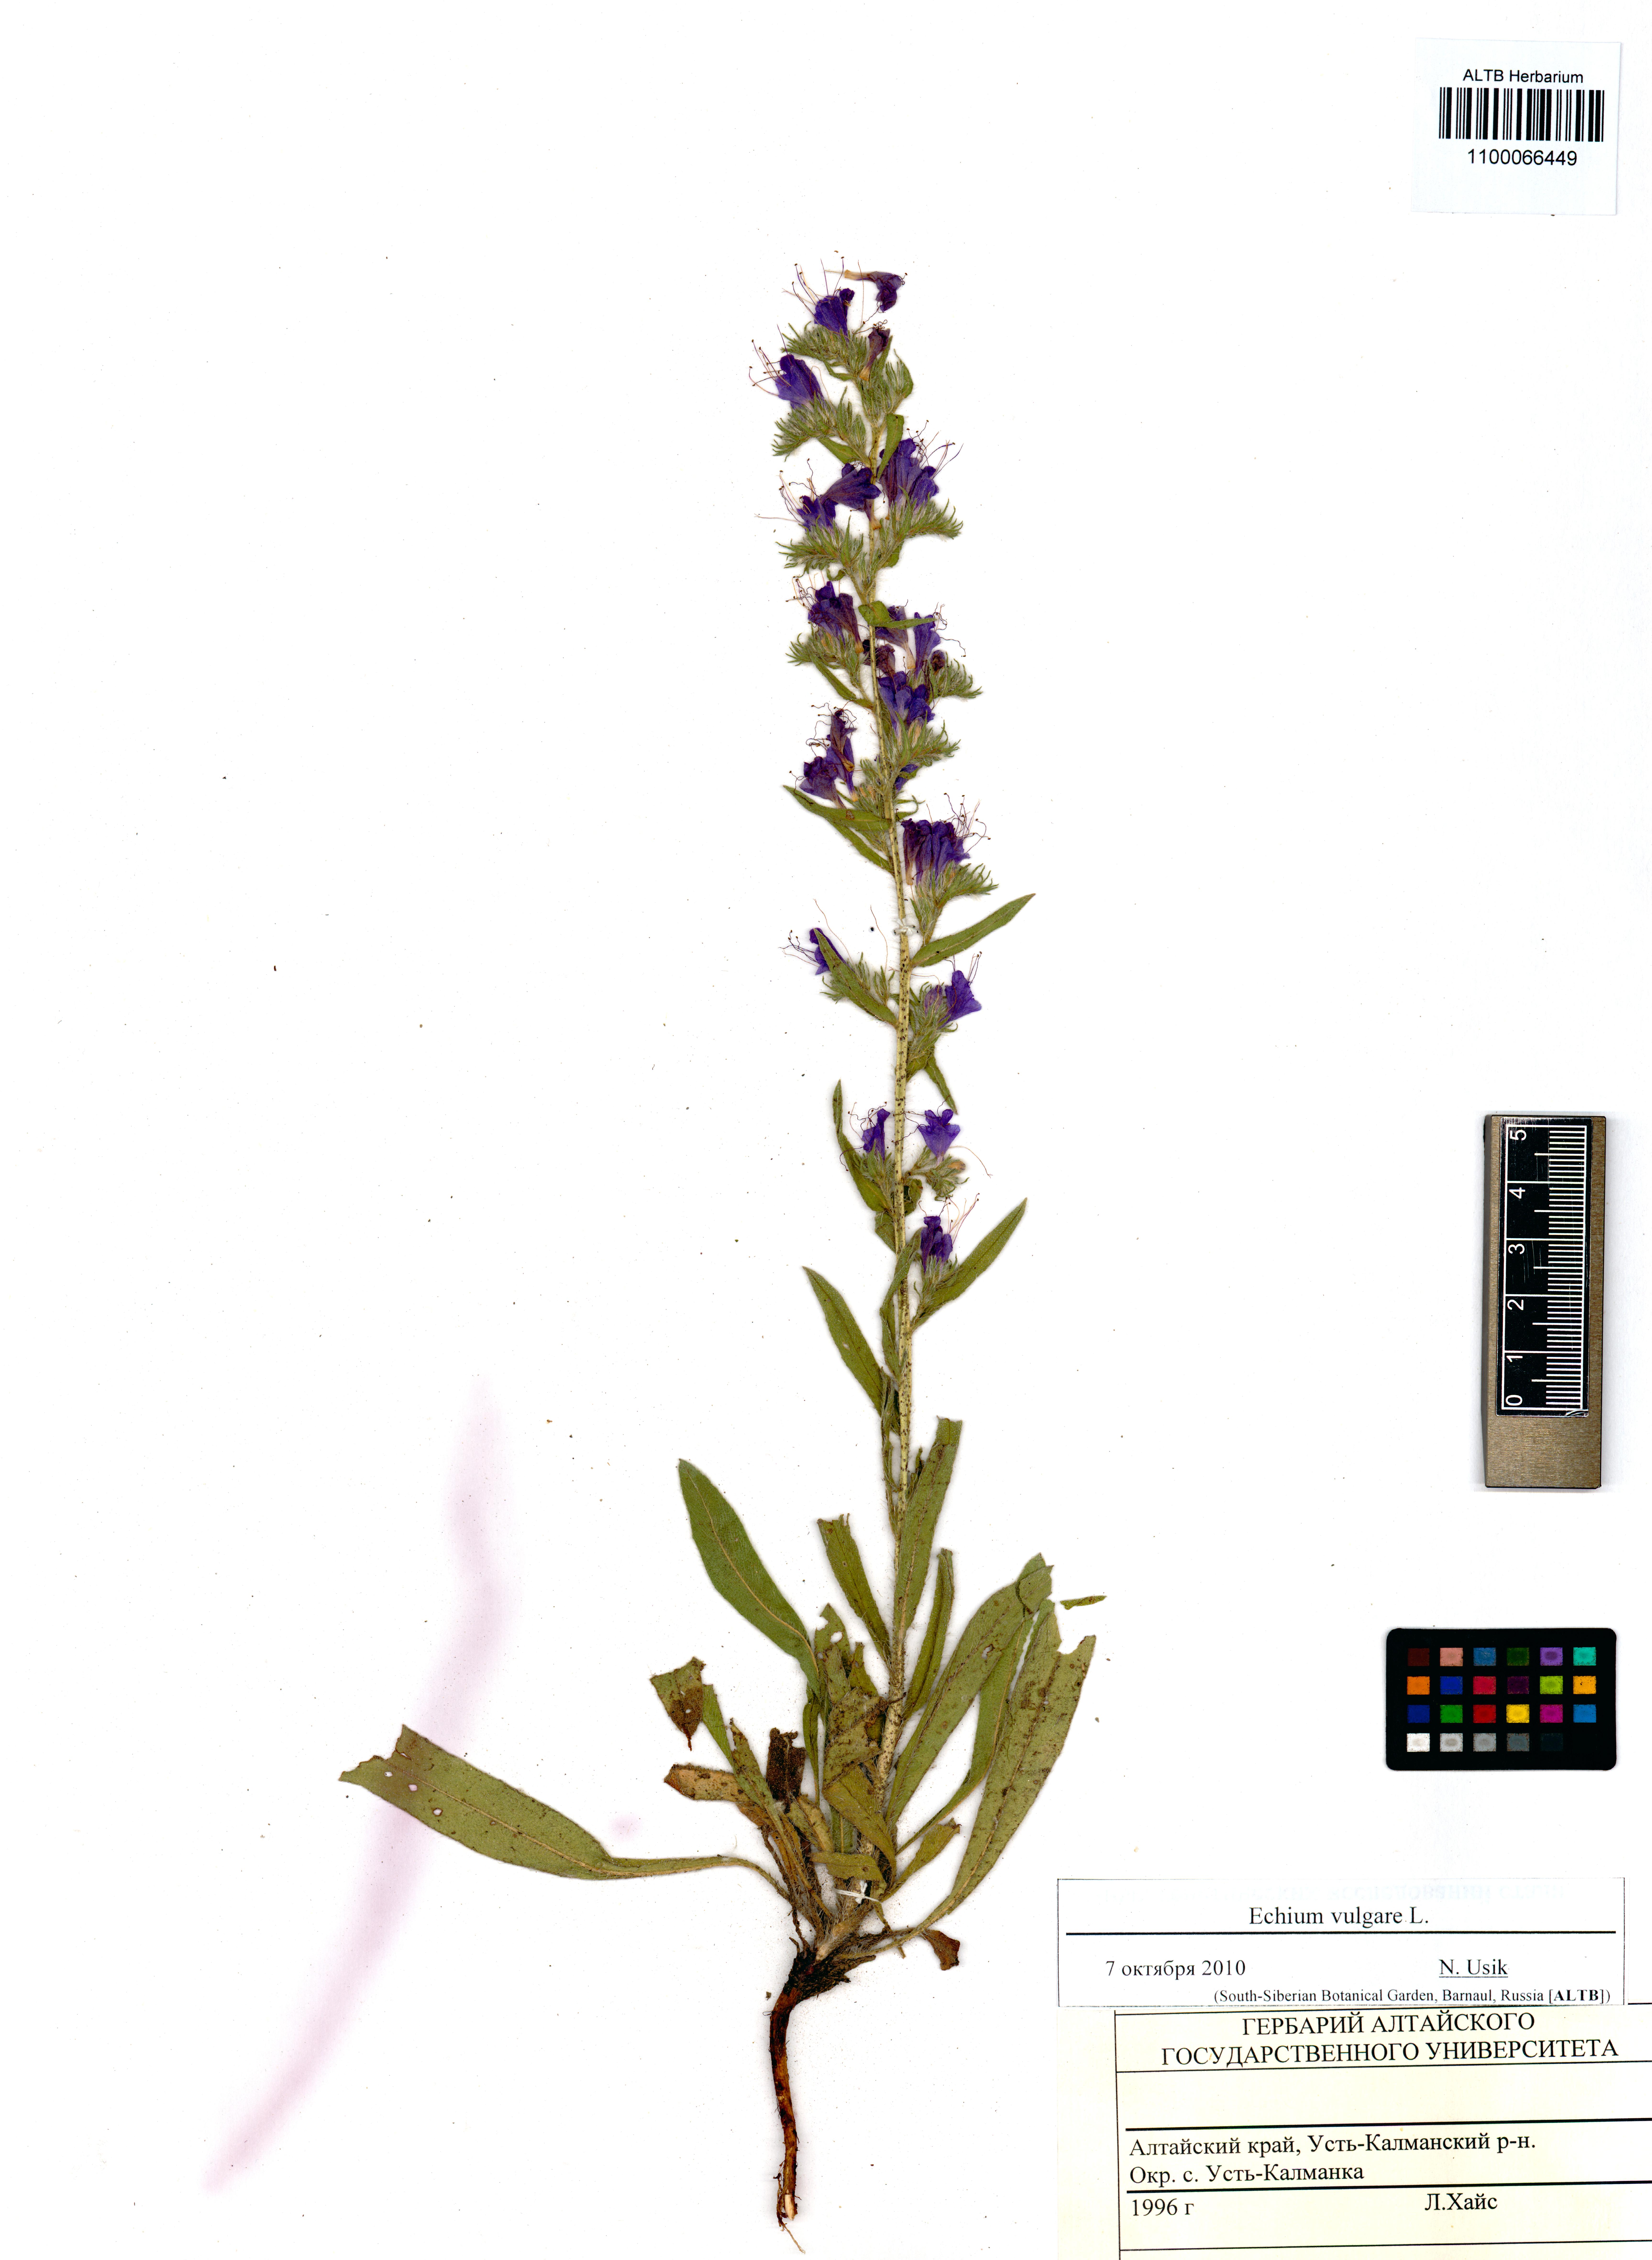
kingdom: Plantae
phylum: Tracheophyta
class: Magnoliopsida
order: Boraginales
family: Boraginaceae
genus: Echium
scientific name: Echium vulgare
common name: Common viper's bugloss
